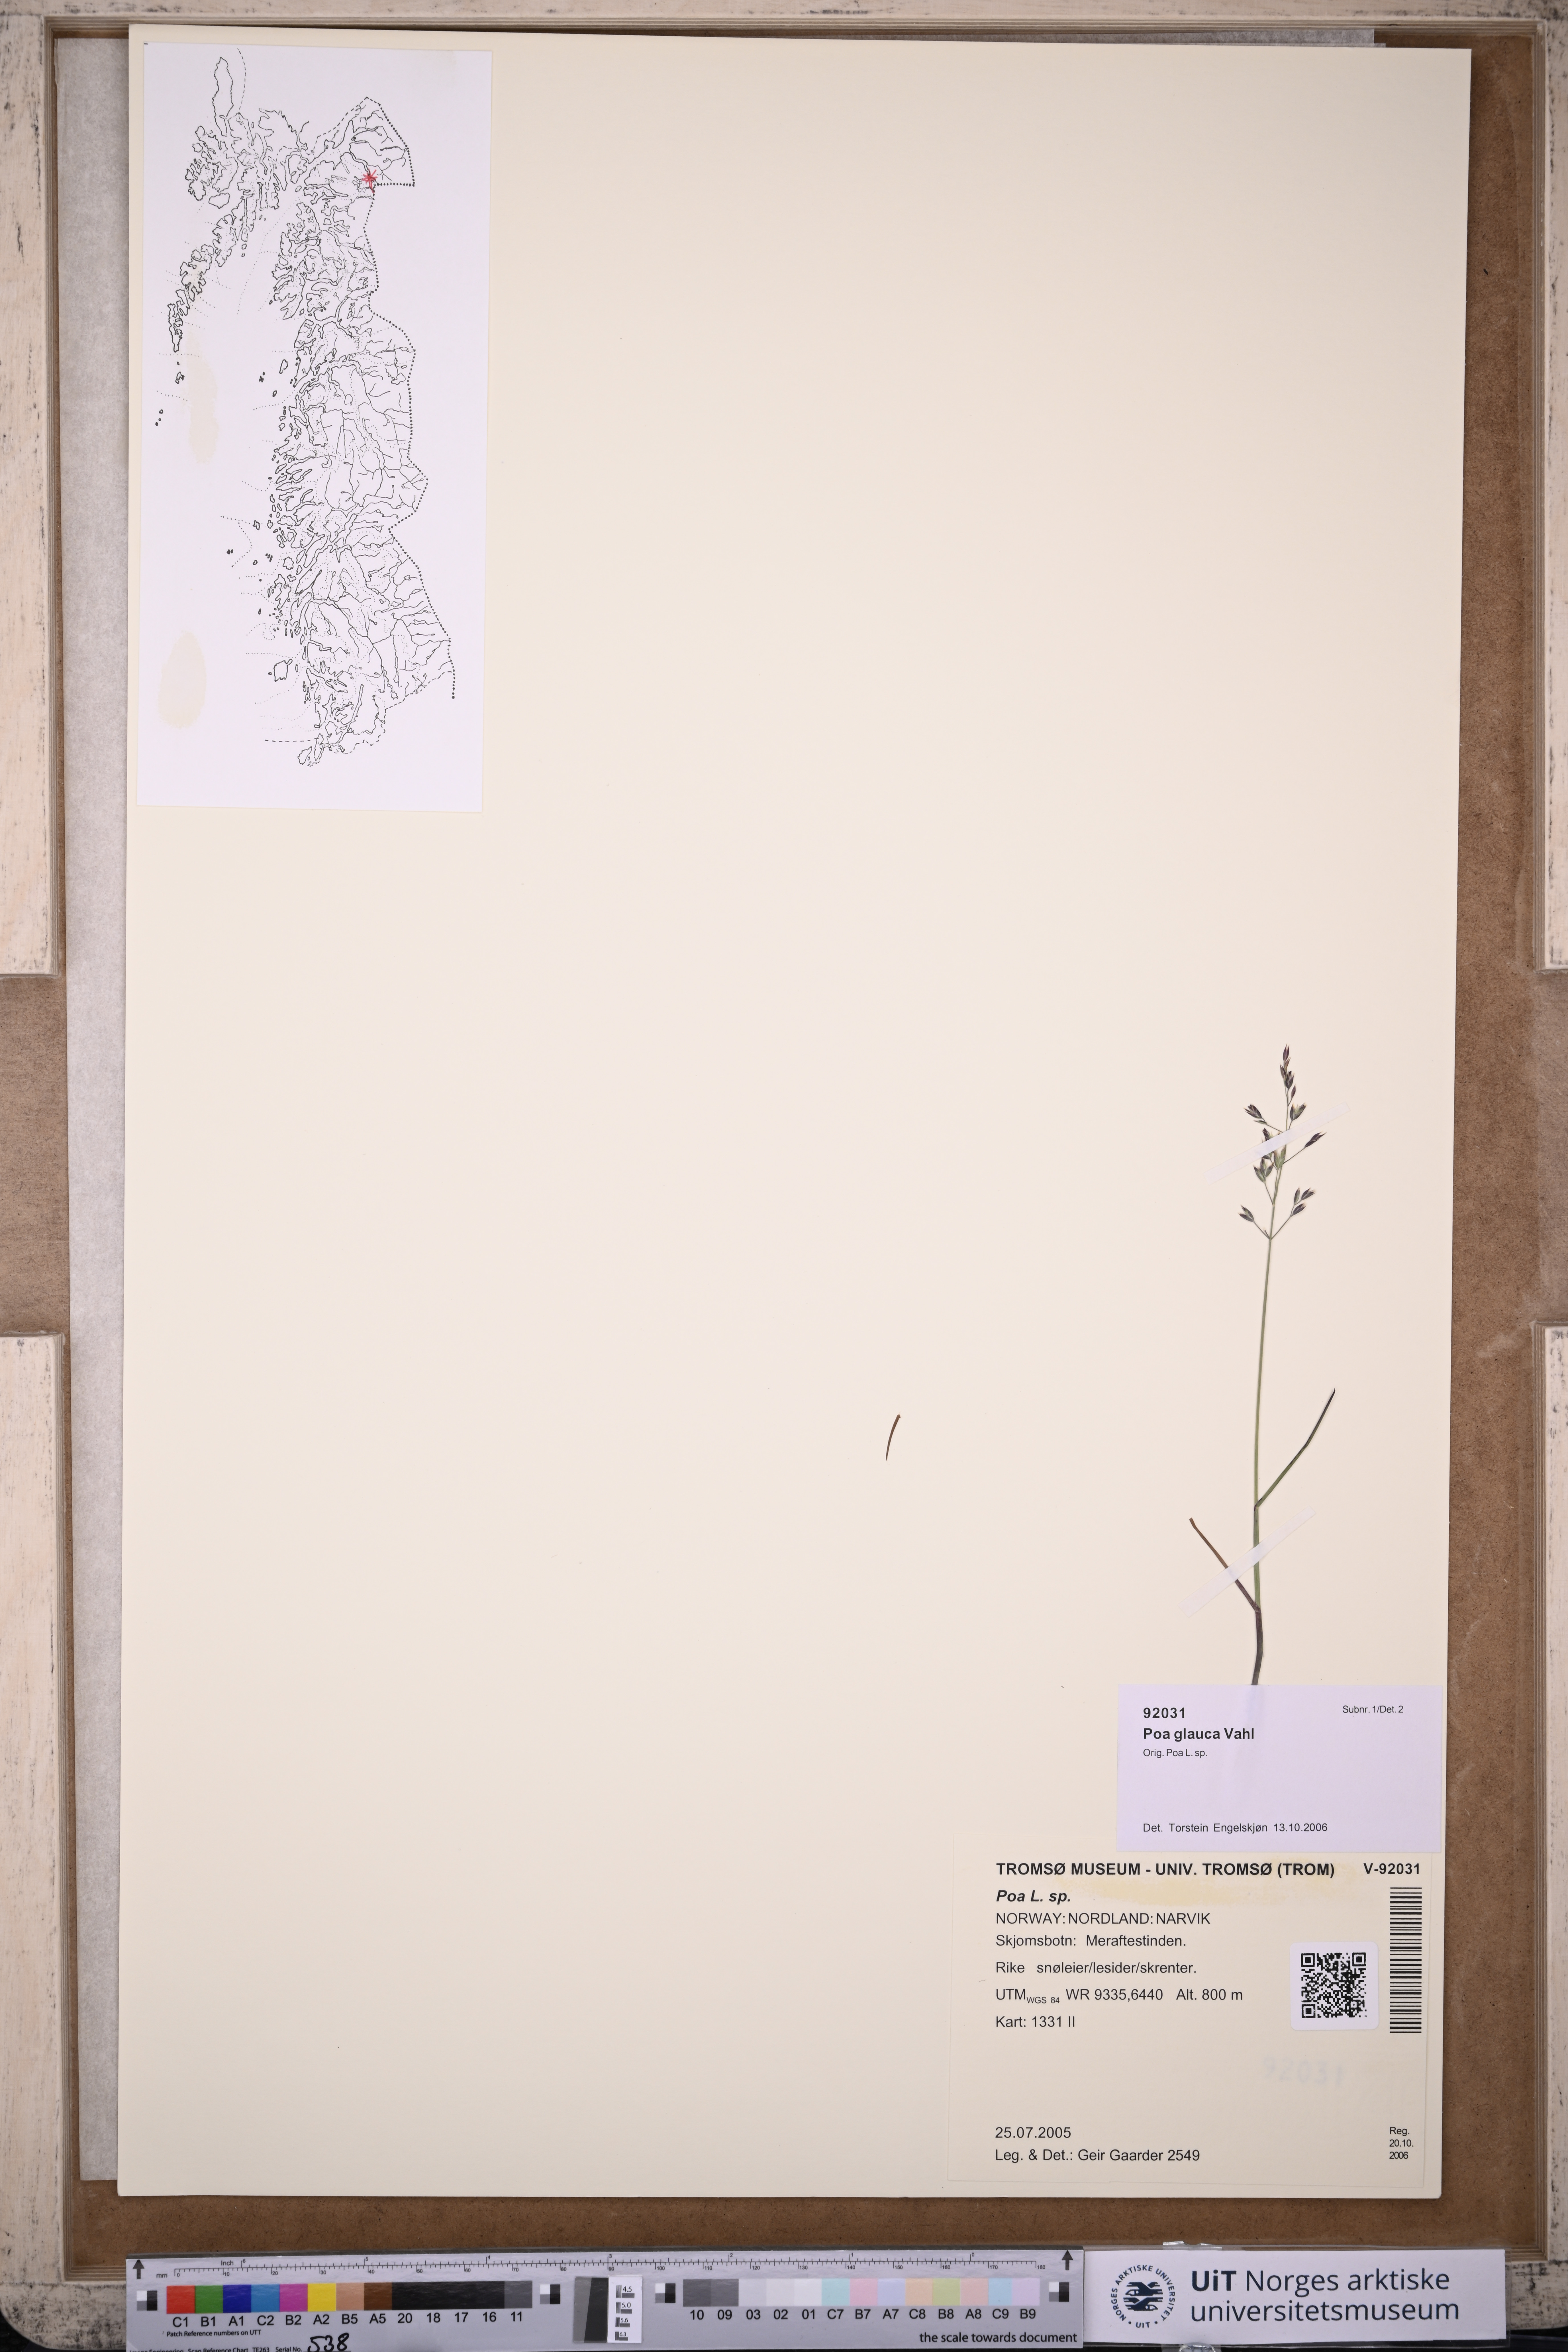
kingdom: Plantae
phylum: Tracheophyta
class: Liliopsida
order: Poales
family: Poaceae
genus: Poa
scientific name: Poa glauca
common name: Glaucous bluegrass
